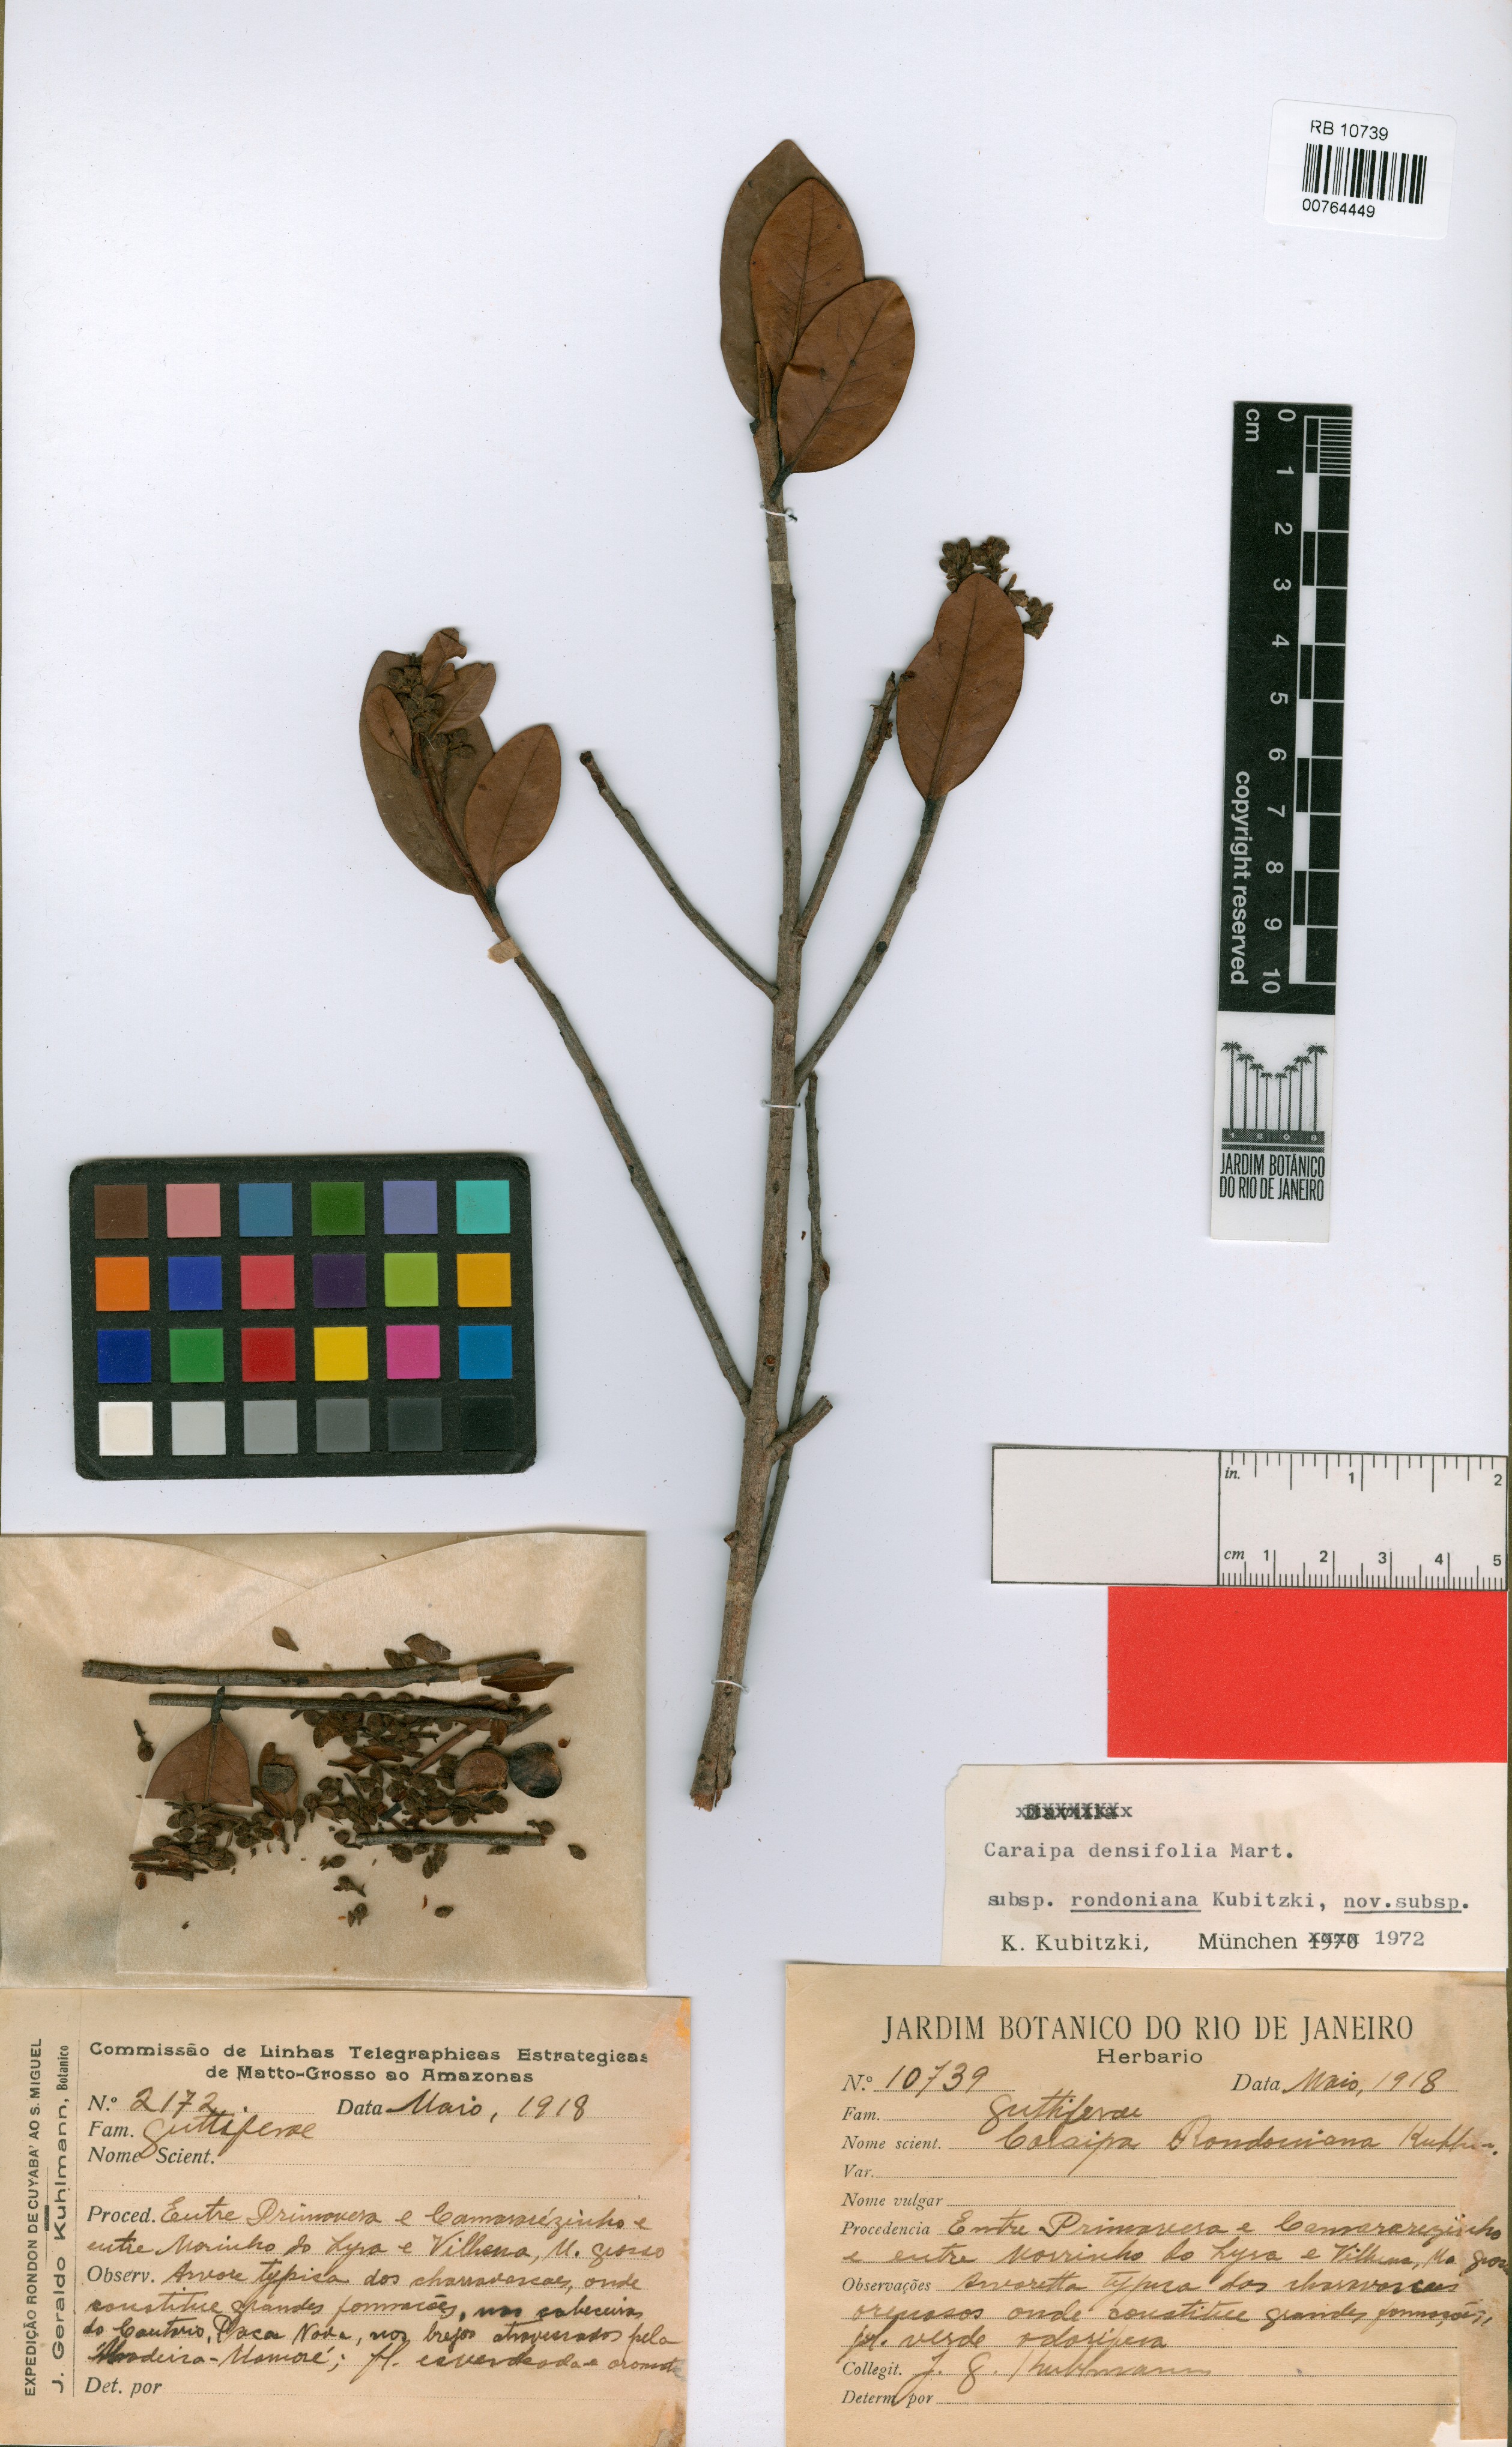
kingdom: Plantae
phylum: Tracheophyta
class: Magnoliopsida
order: Malpighiales
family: Calophyllaceae
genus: Caraipa
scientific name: Caraipa densifolia
